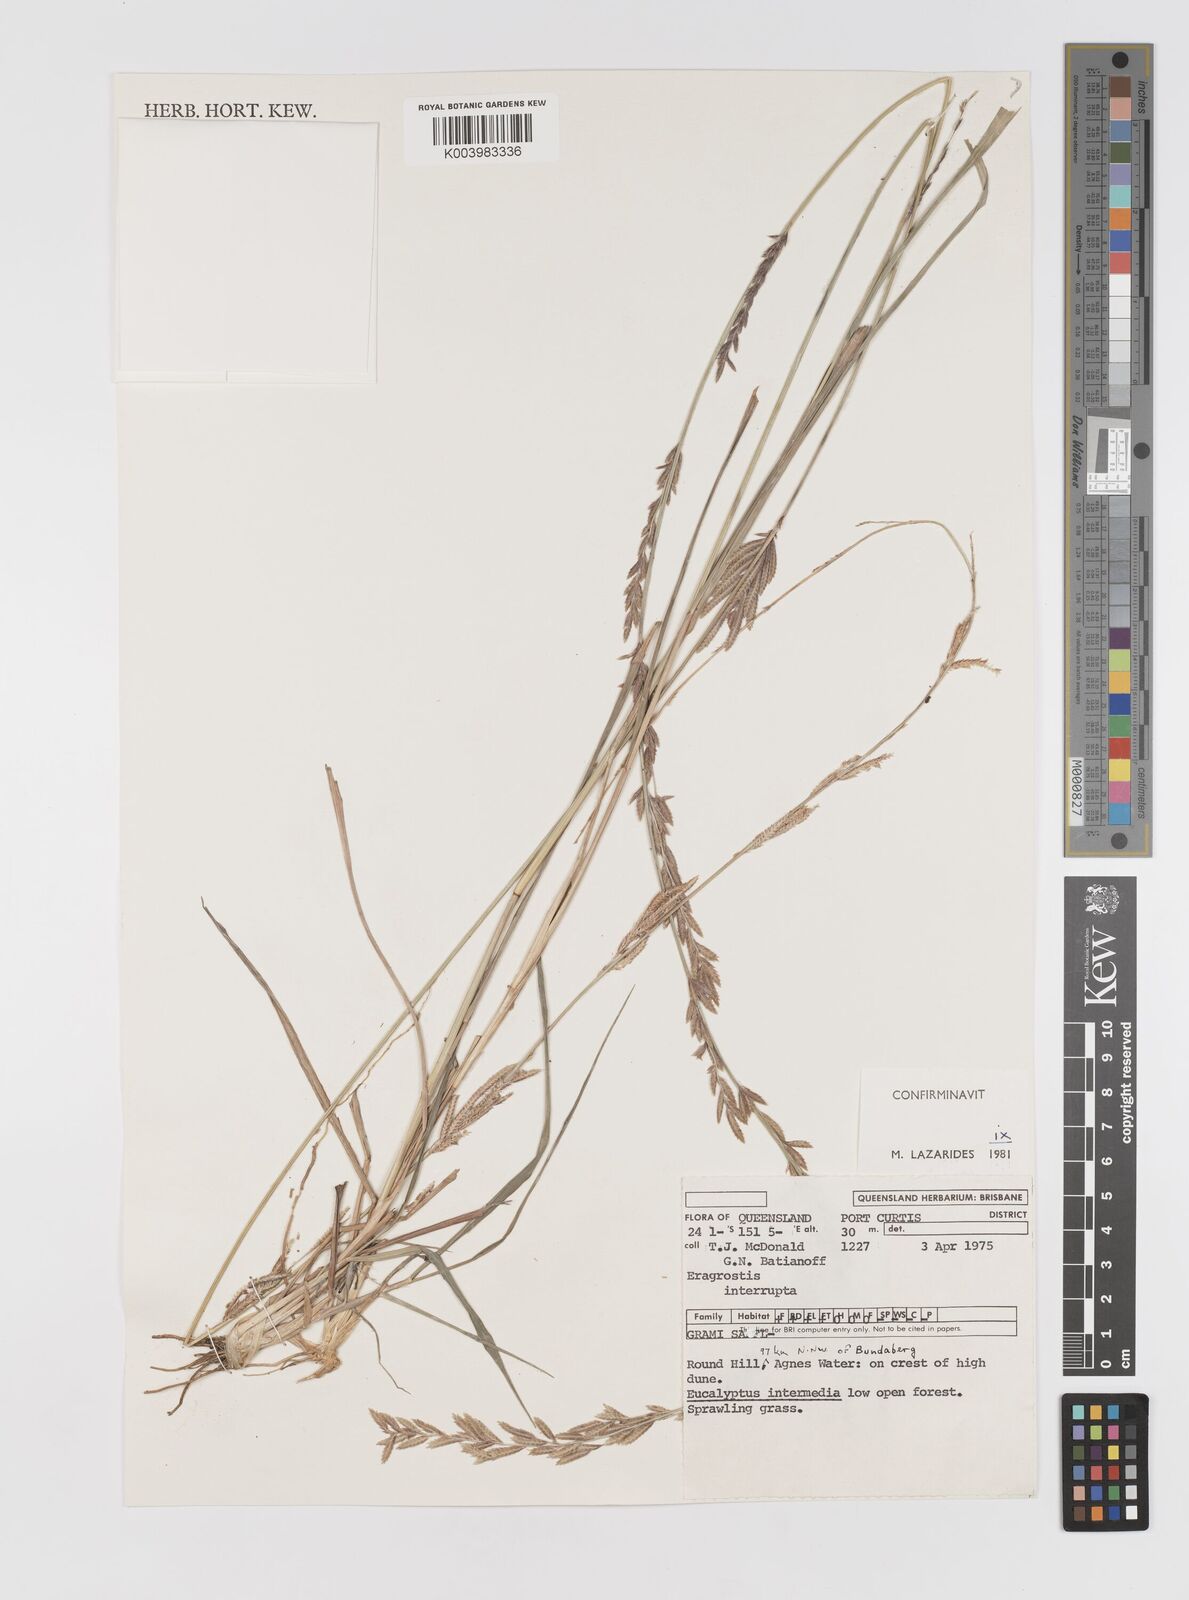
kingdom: Plantae
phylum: Tracheophyta
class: Liliopsida
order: Poales
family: Poaceae
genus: Eragrostis
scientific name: Eragrostis interrupta
